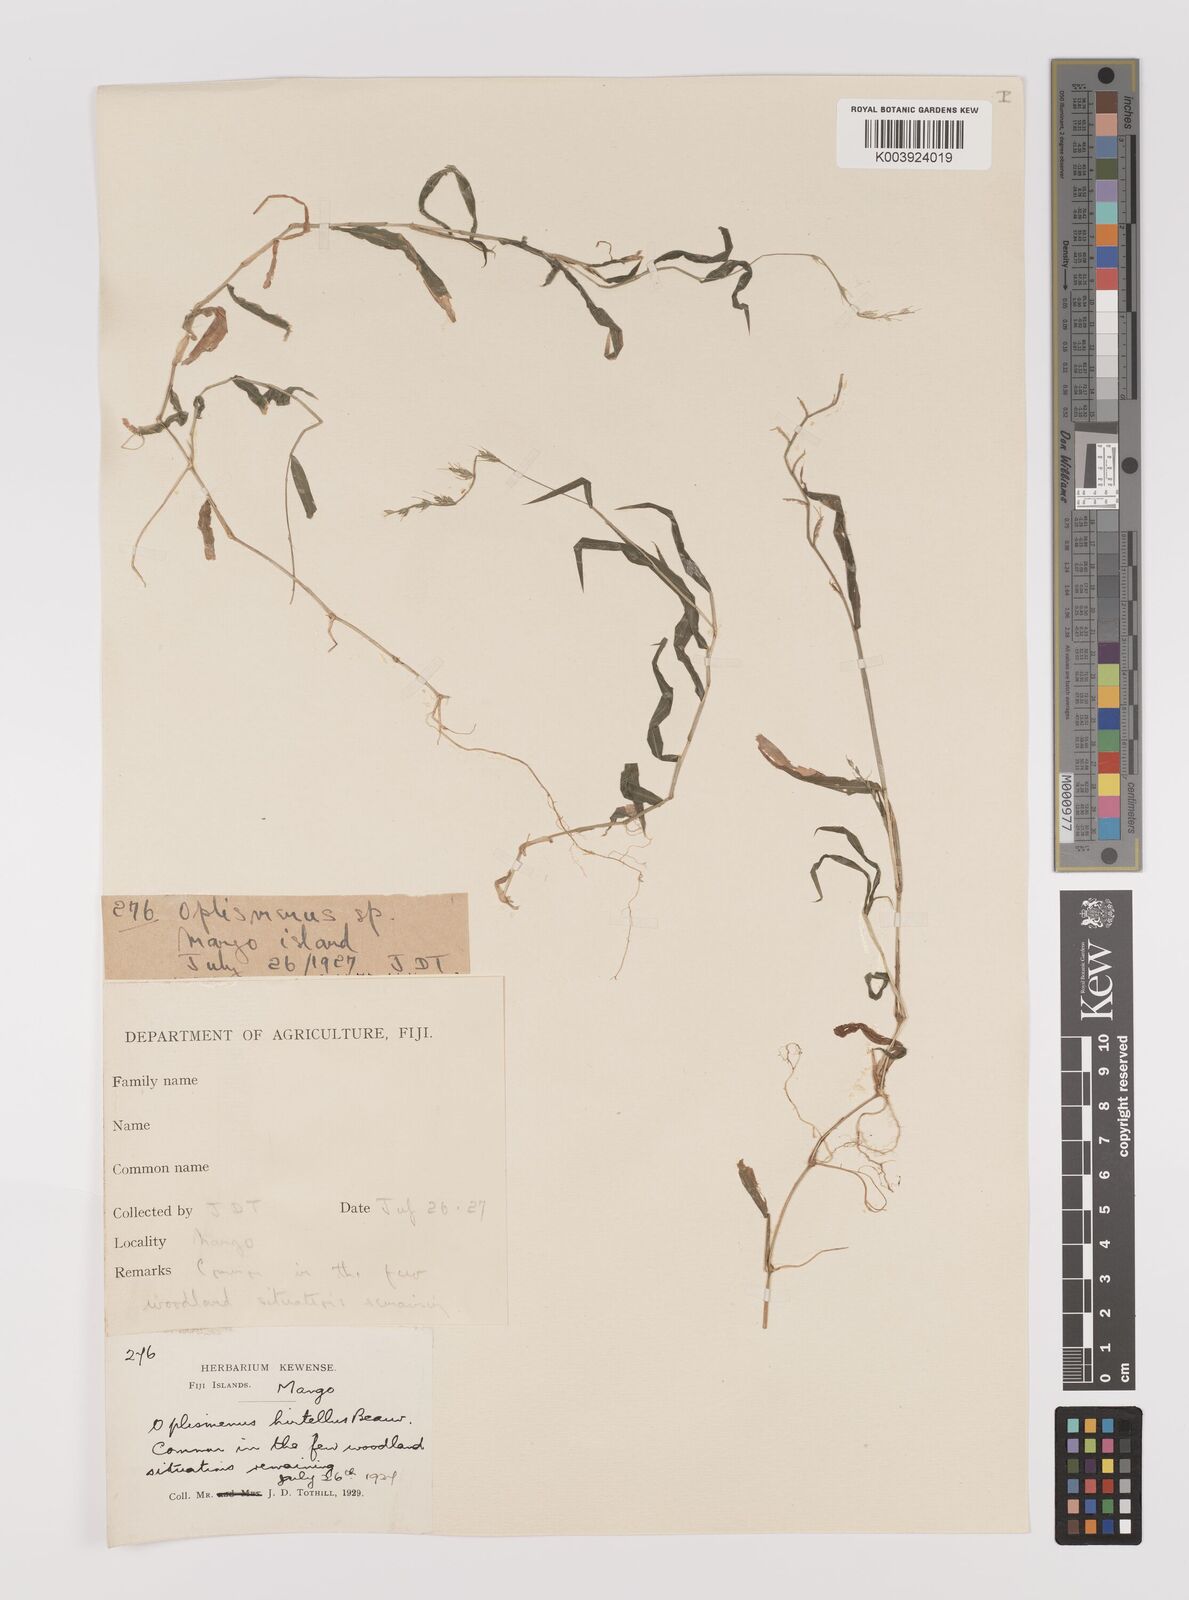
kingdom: Plantae
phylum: Tracheophyta
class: Liliopsida
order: Poales
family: Poaceae
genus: Oplismenus
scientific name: Oplismenus hirtellus
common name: Basketgrass
